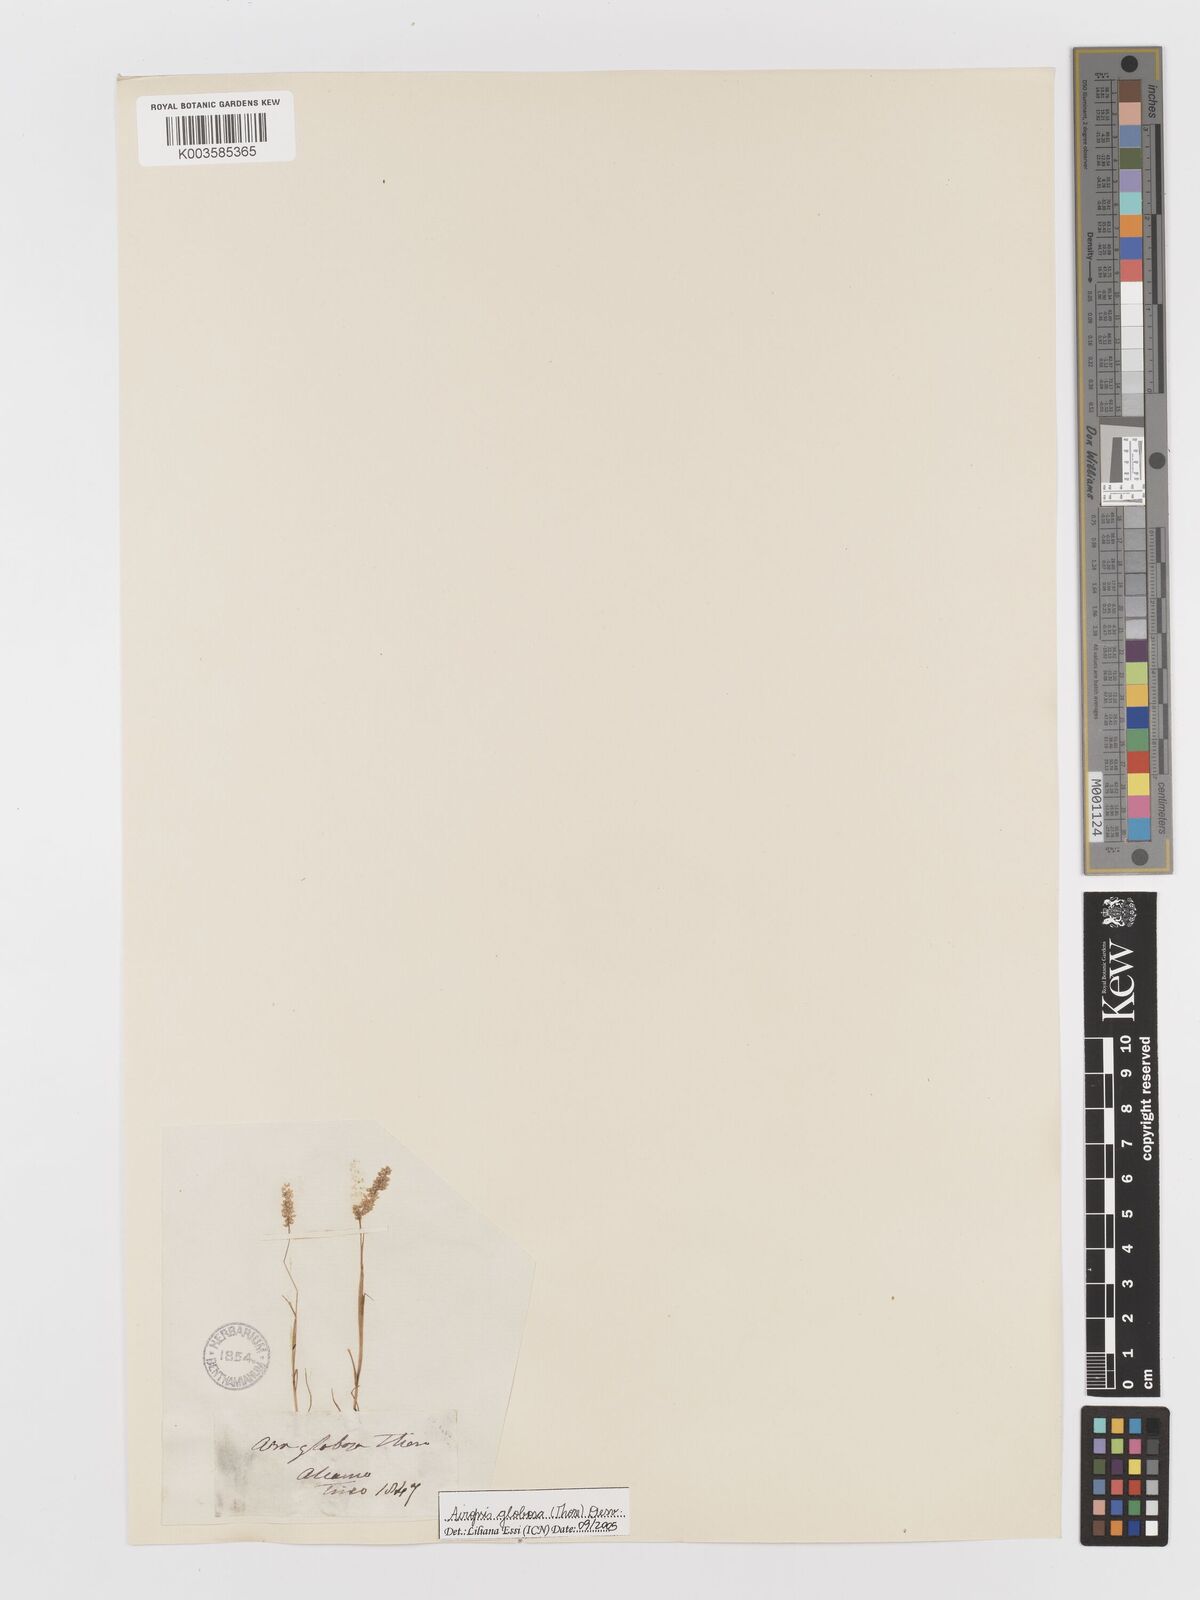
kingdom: Plantae
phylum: Tracheophyta
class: Liliopsida
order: Poales
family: Poaceae
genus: Airopsis
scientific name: Airopsis tenella
